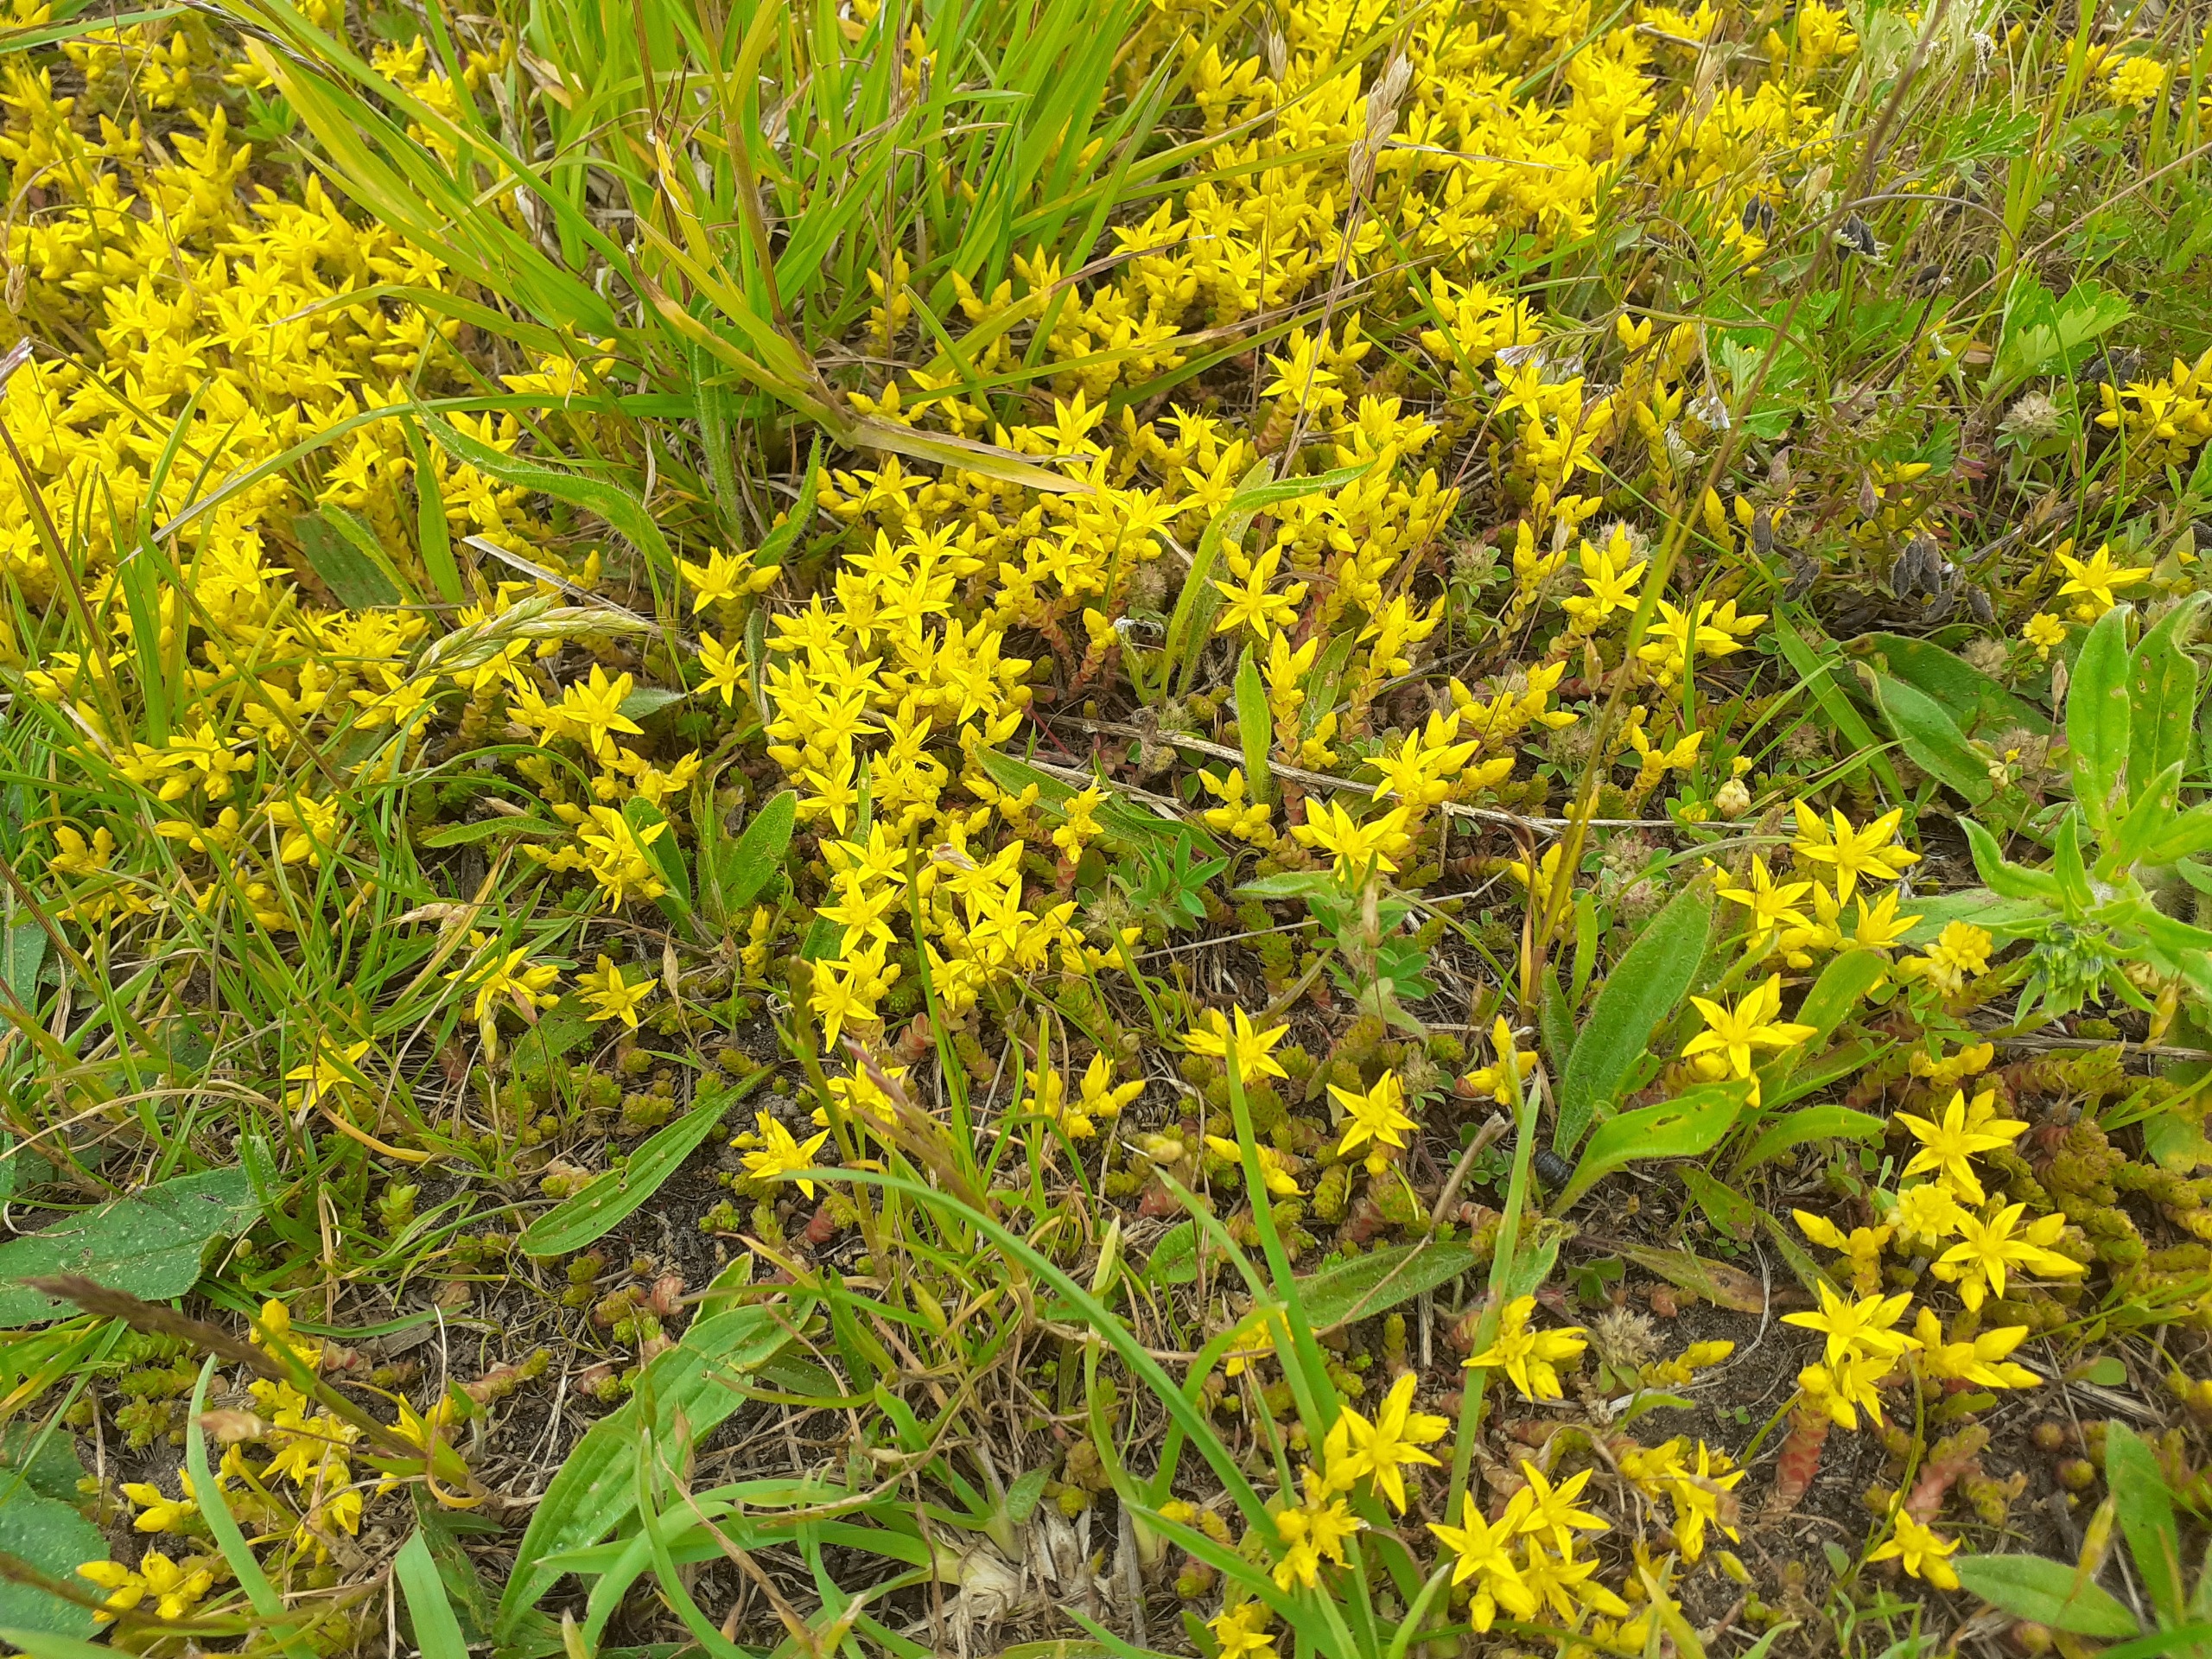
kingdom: Plantae
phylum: Tracheophyta
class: Magnoliopsida
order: Saxifragales
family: Crassulaceae
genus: Sedum
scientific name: Sedum acre
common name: Bidende stenurt
